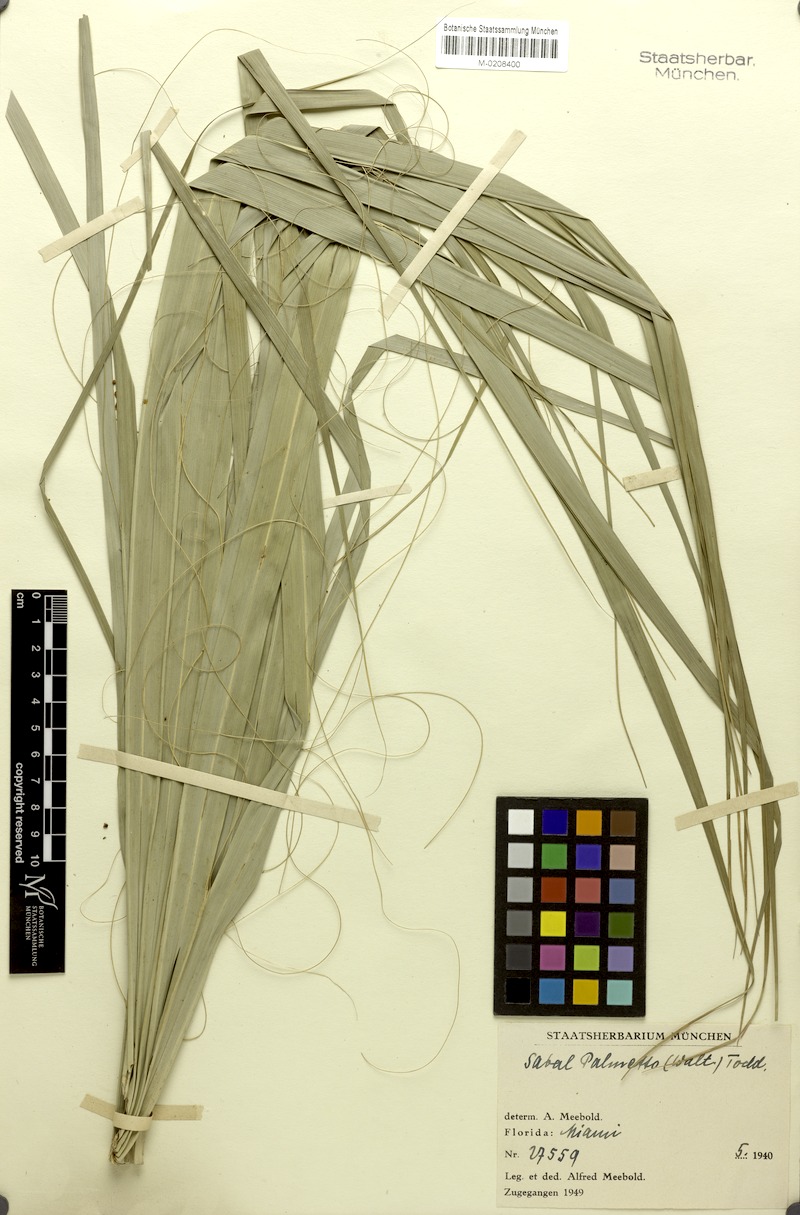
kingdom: Plantae
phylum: Tracheophyta
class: Liliopsida
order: Arecales
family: Arecaceae
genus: Sabal
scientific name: Sabal palmetto
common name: Blue palmetto
